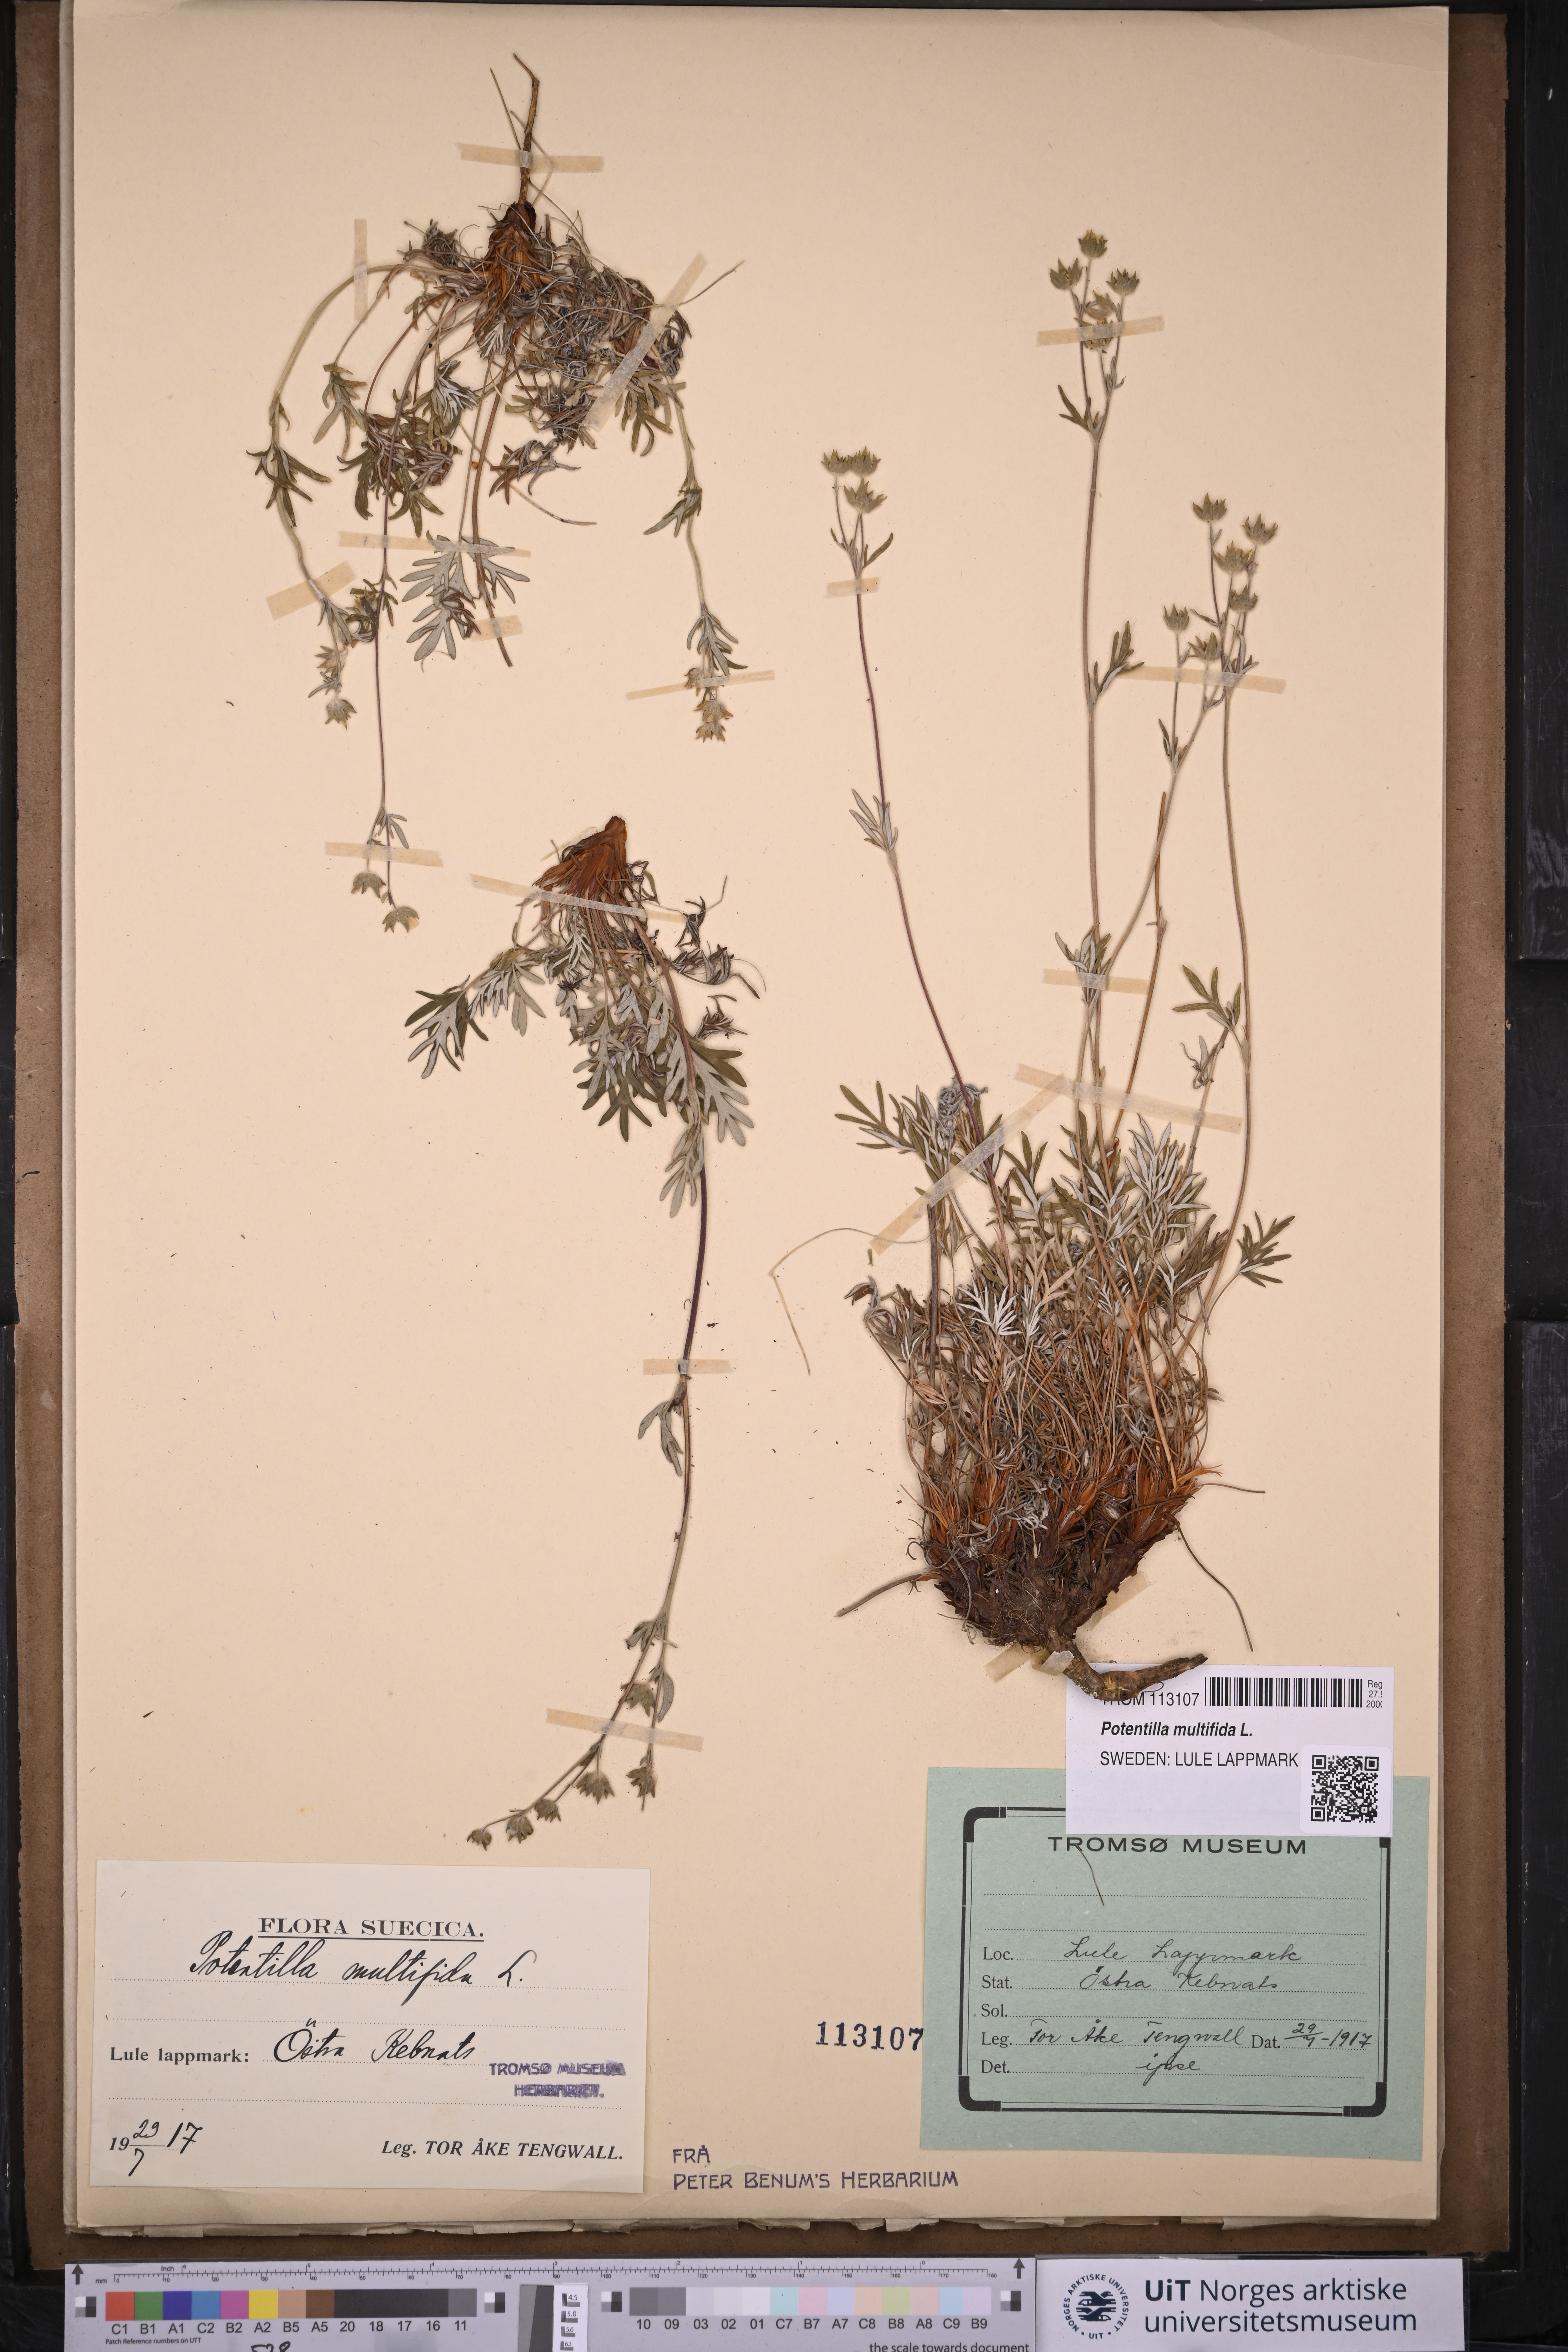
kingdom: Plantae
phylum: Tracheophyta
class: Magnoliopsida
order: Rosales
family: Rosaceae
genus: Potentilla
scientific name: Potentilla multifida
